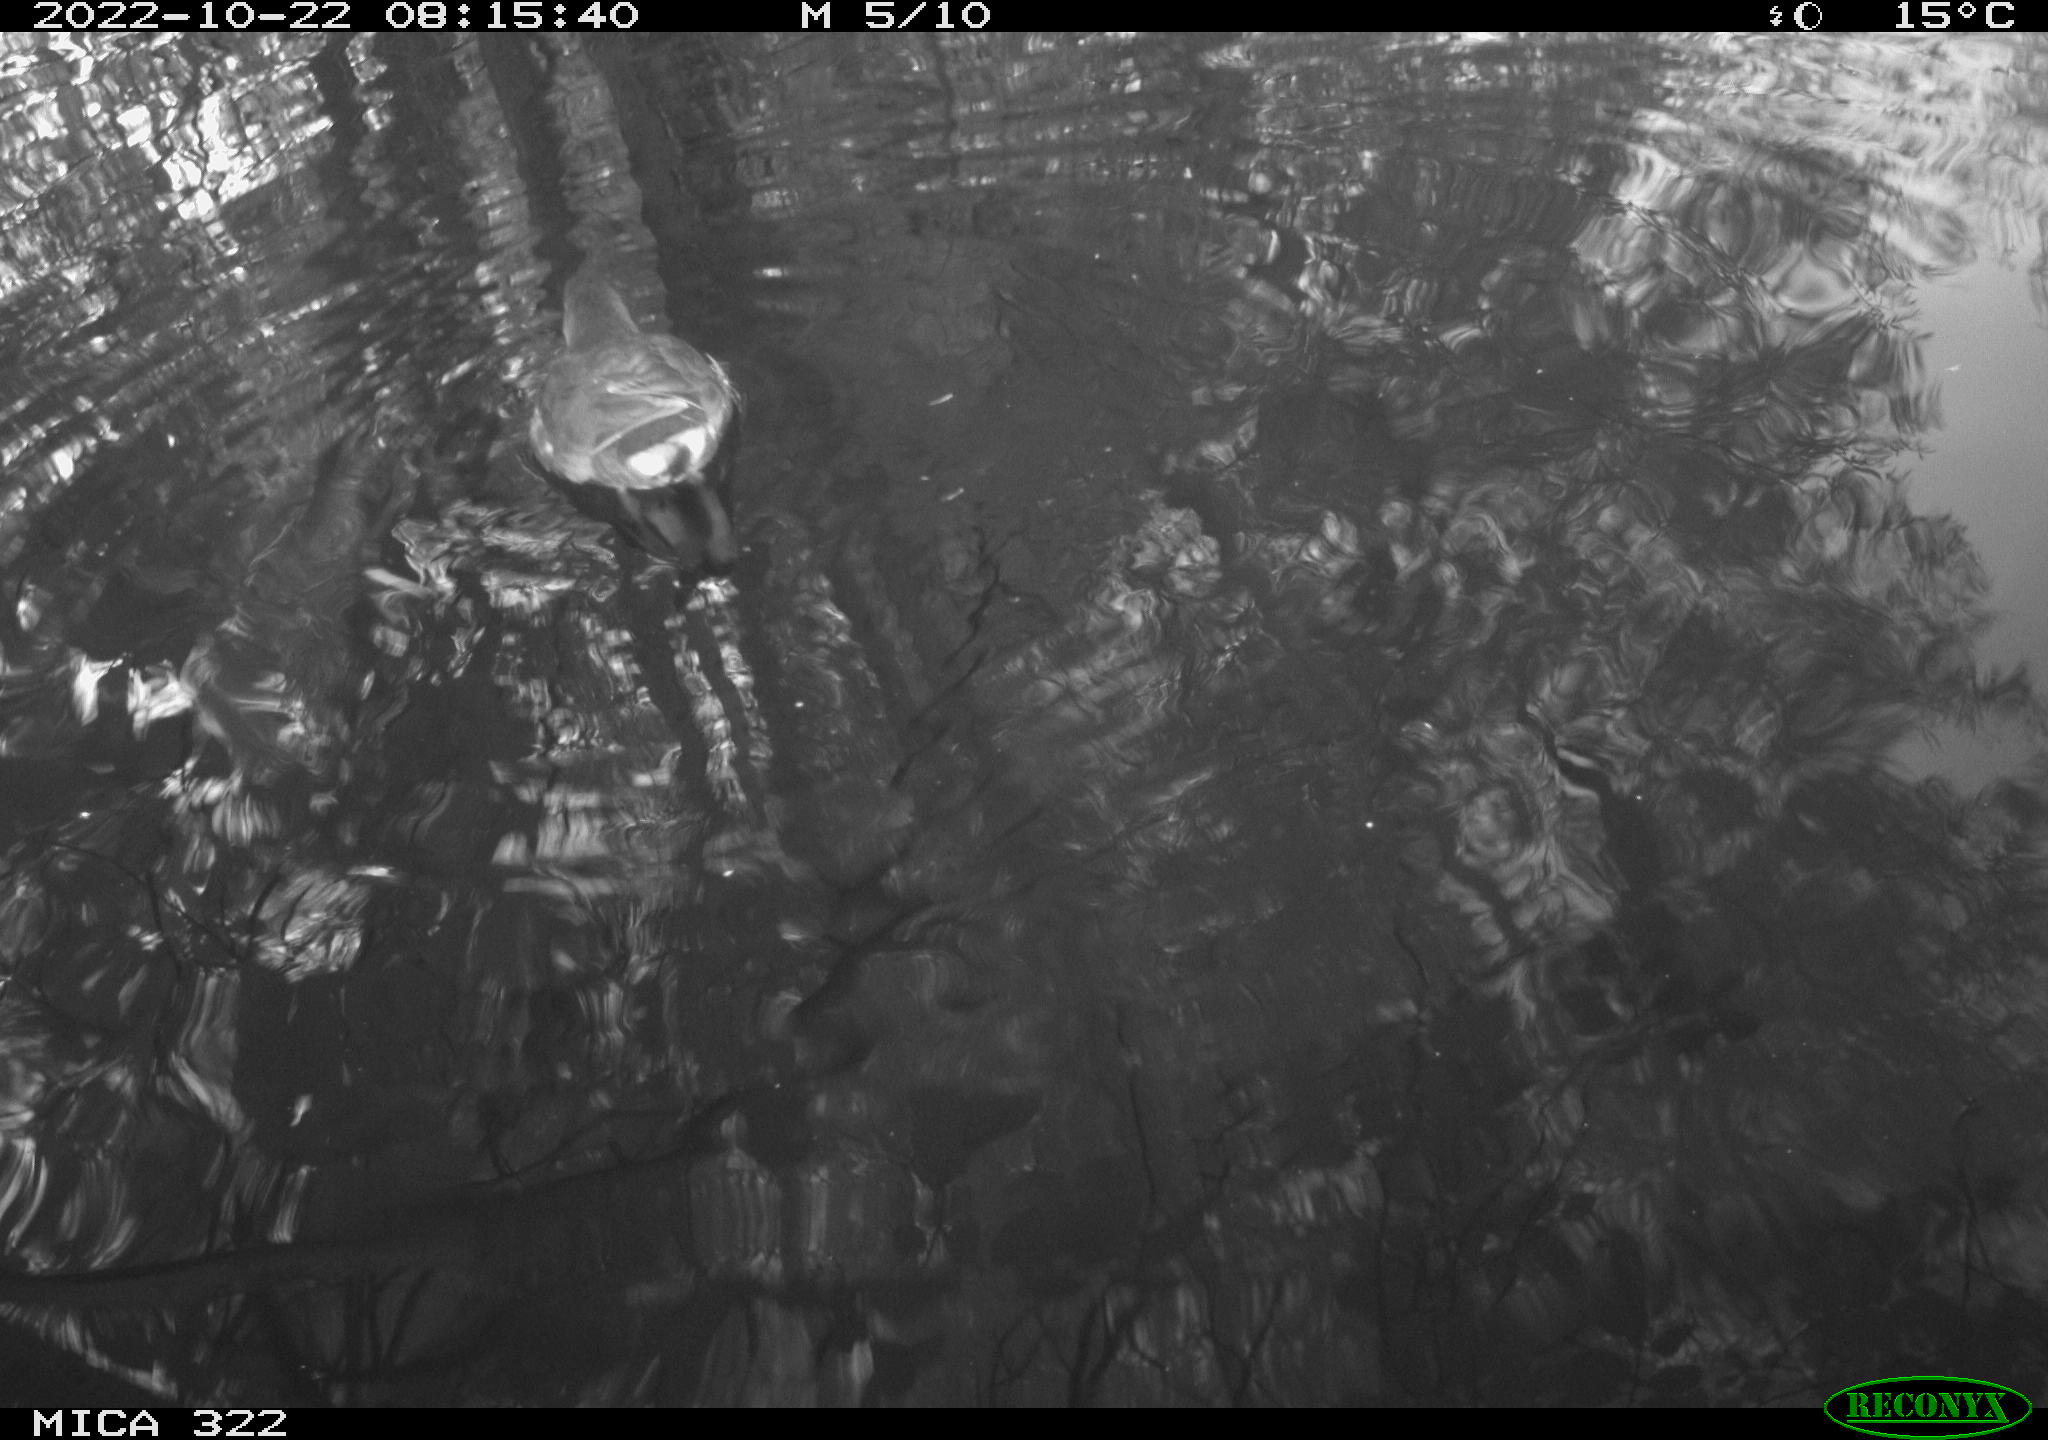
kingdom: Animalia
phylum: Chordata
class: Aves
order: Anseriformes
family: Anatidae
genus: Anas
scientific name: Anas
